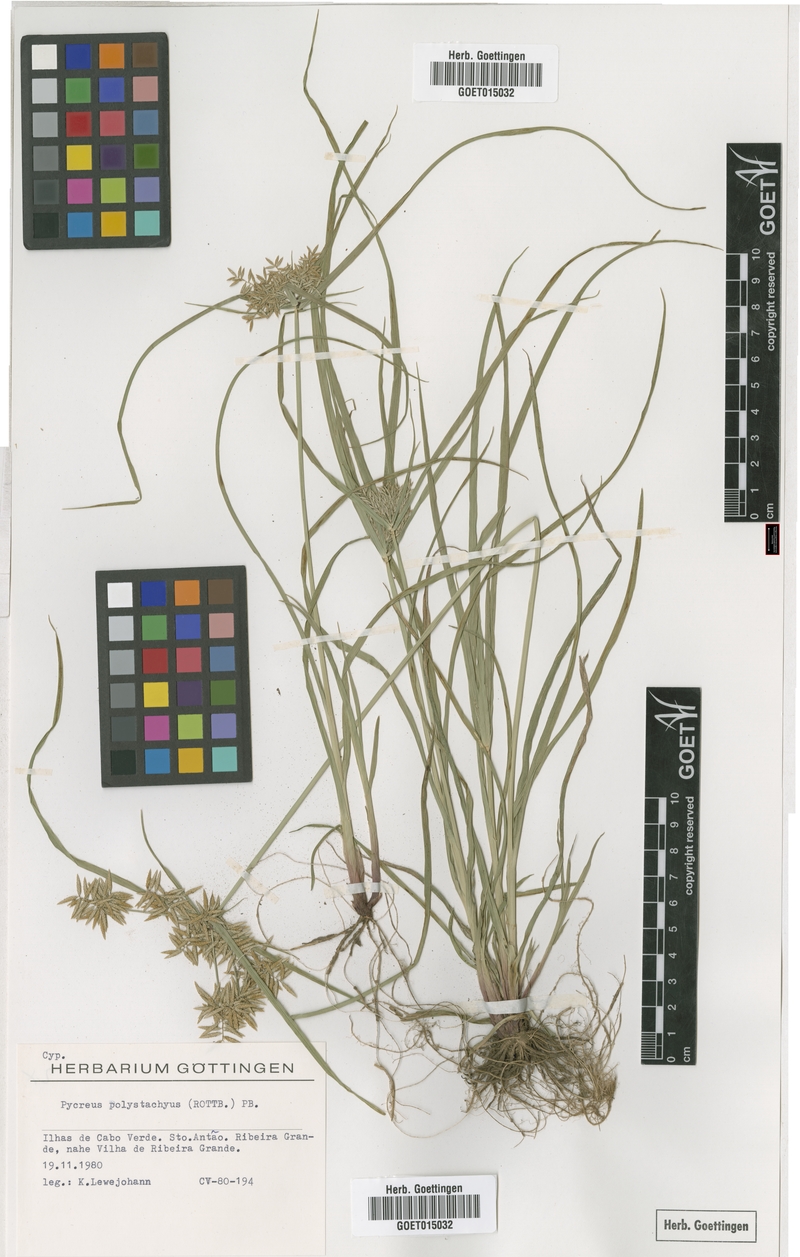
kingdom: Plantae
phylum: Tracheophyta
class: Liliopsida
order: Poales
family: Cyperaceae
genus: Cyperus
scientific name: Cyperus polystachyos
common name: Bunchy flat sedge
